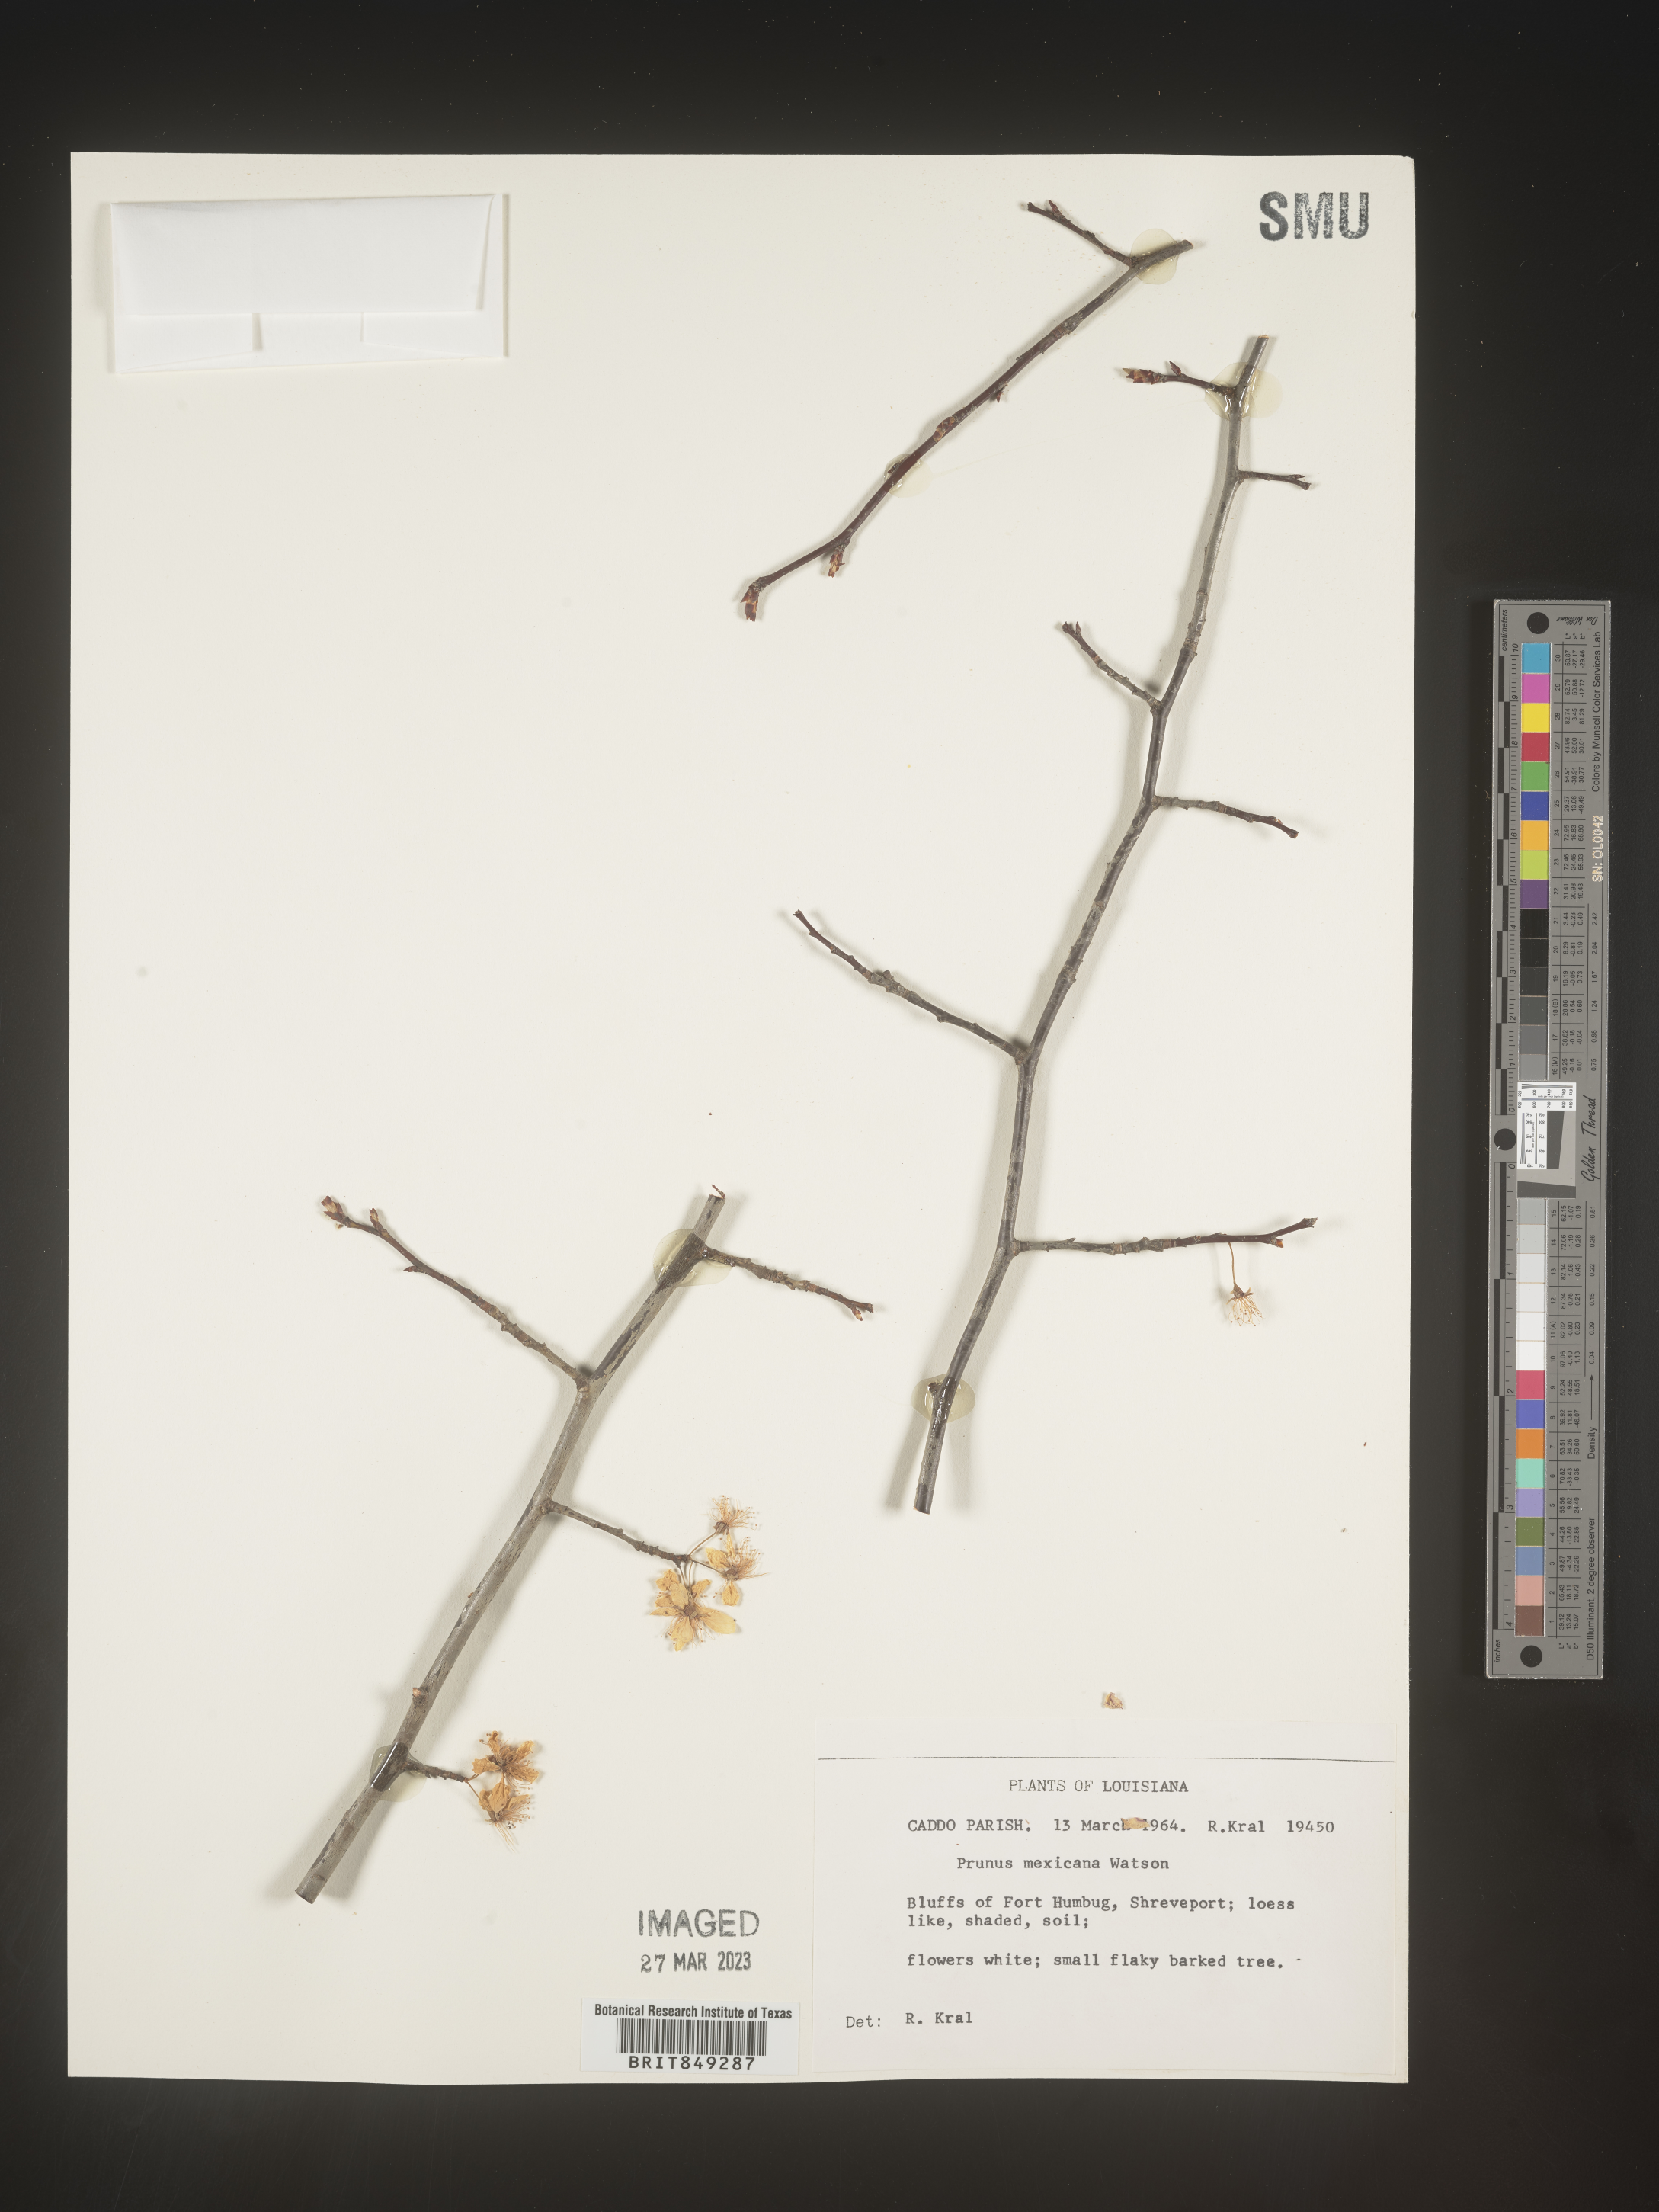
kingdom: Plantae
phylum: Tracheophyta
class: Magnoliopsida
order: Rosales
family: Rosaceae
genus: Prunus
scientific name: Prunus mexicana
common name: Mexican plum
